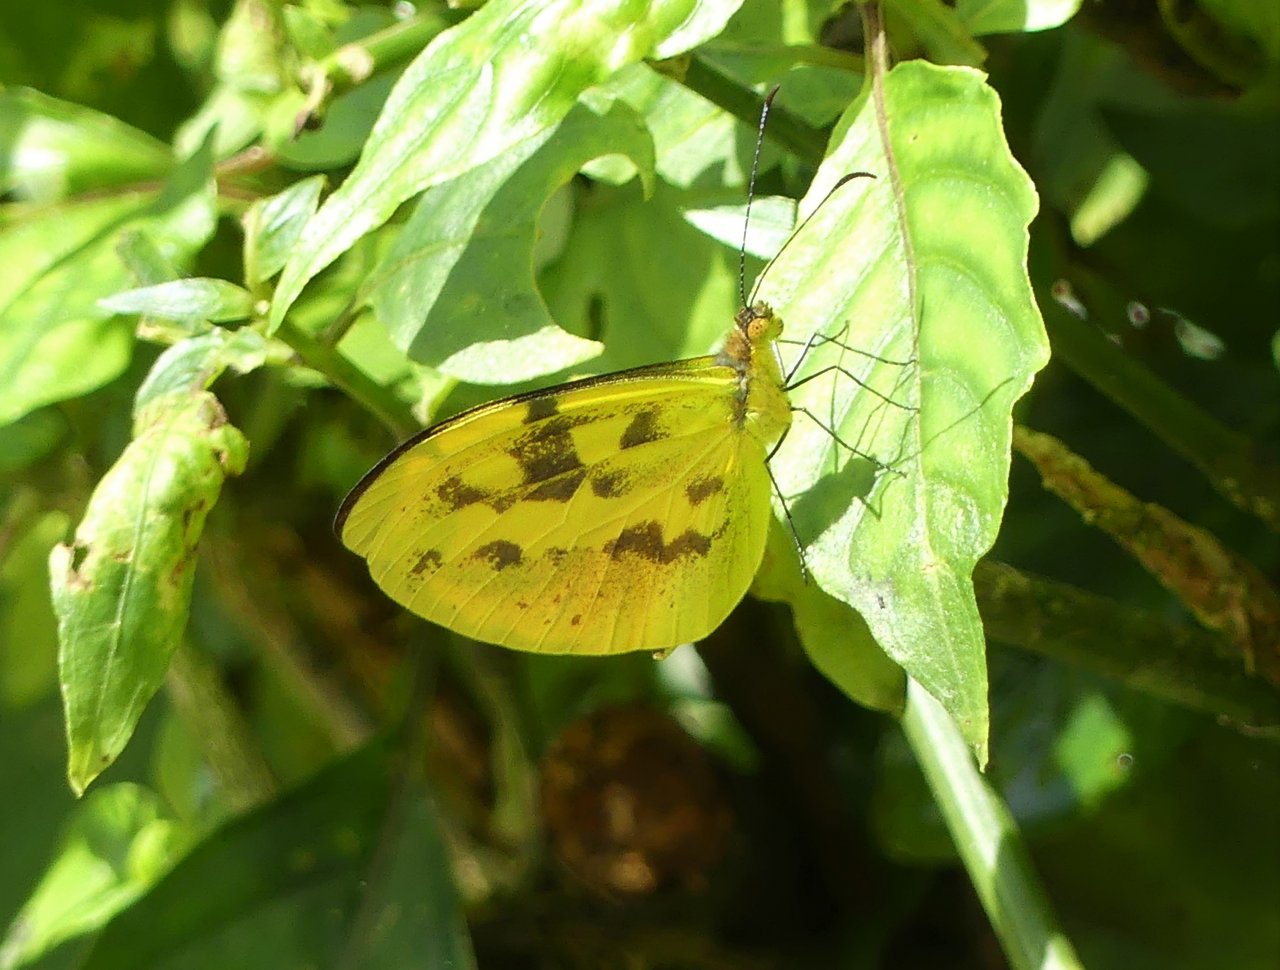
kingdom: Animalia
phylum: Arthropoda
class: Insecta
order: Lepidoptera
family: Pieridae
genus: Enantia
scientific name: Enantia albania
